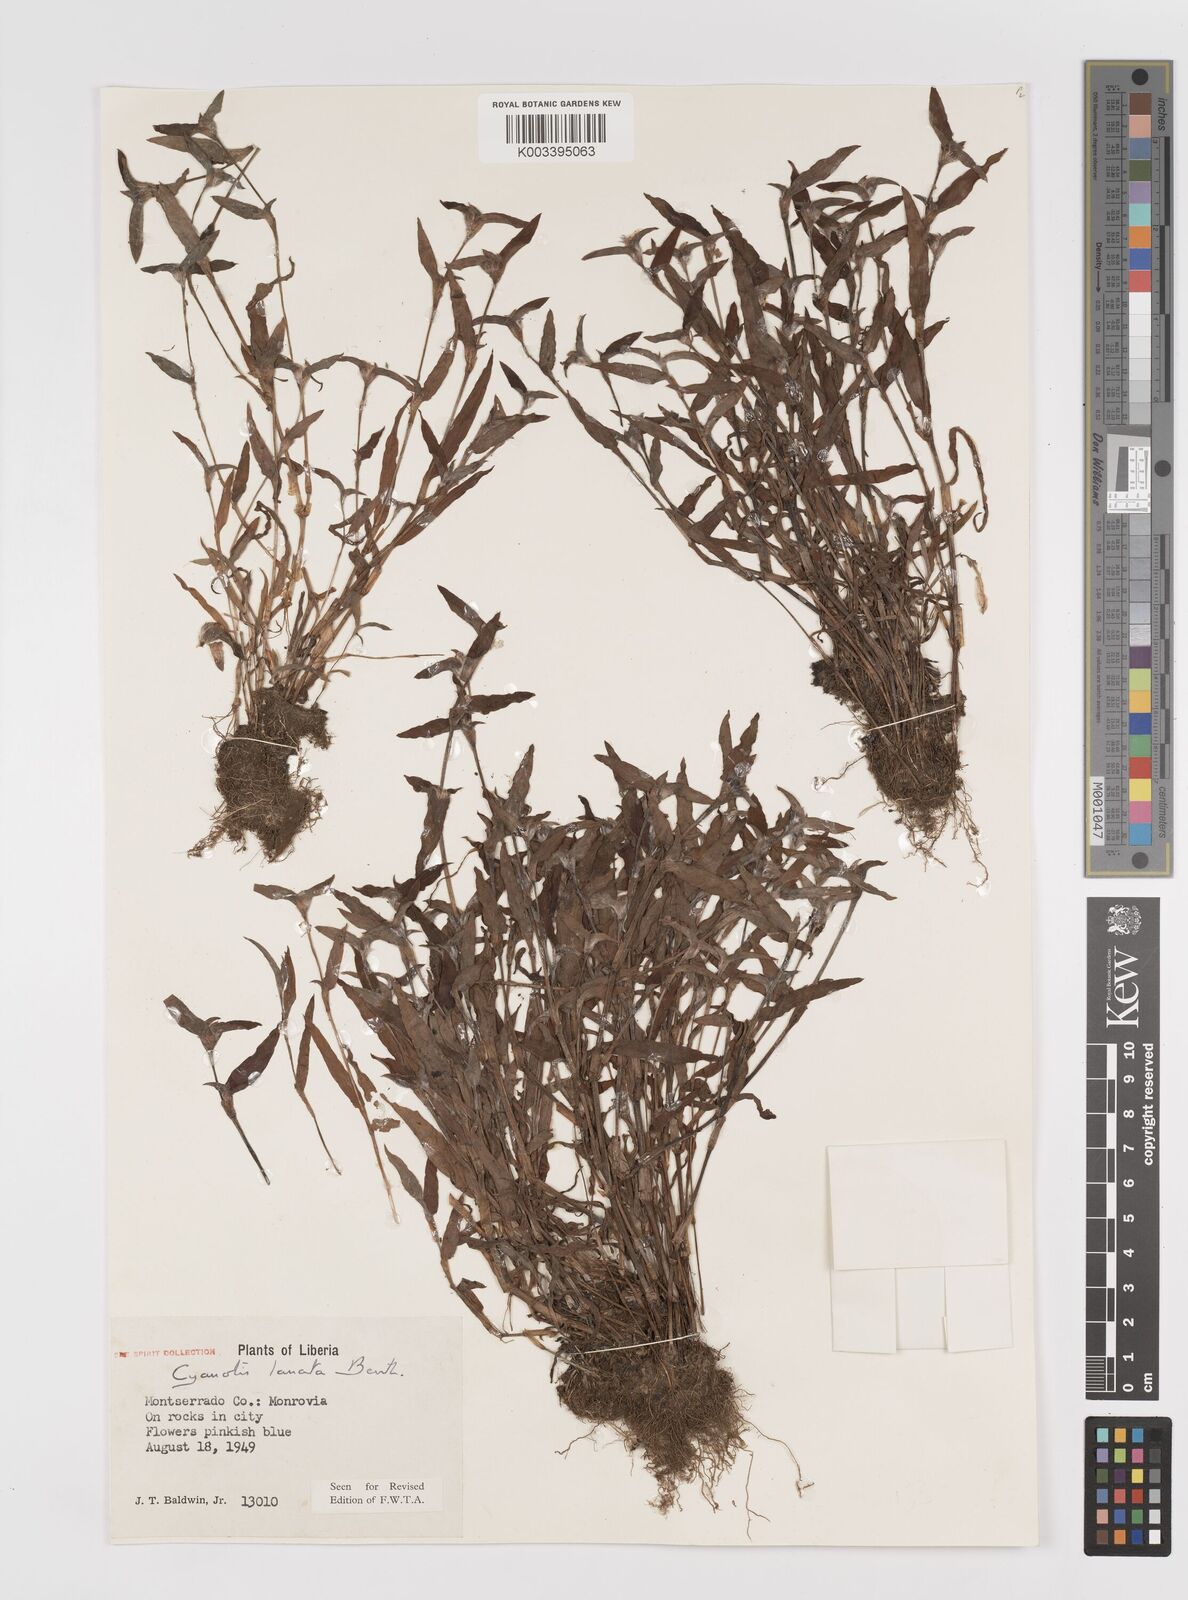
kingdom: Plantae
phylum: Tracheophyta
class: Liliopsida
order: Commelinales
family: Commelinaceae
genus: Cyanotis
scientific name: Cyanotis lanata
